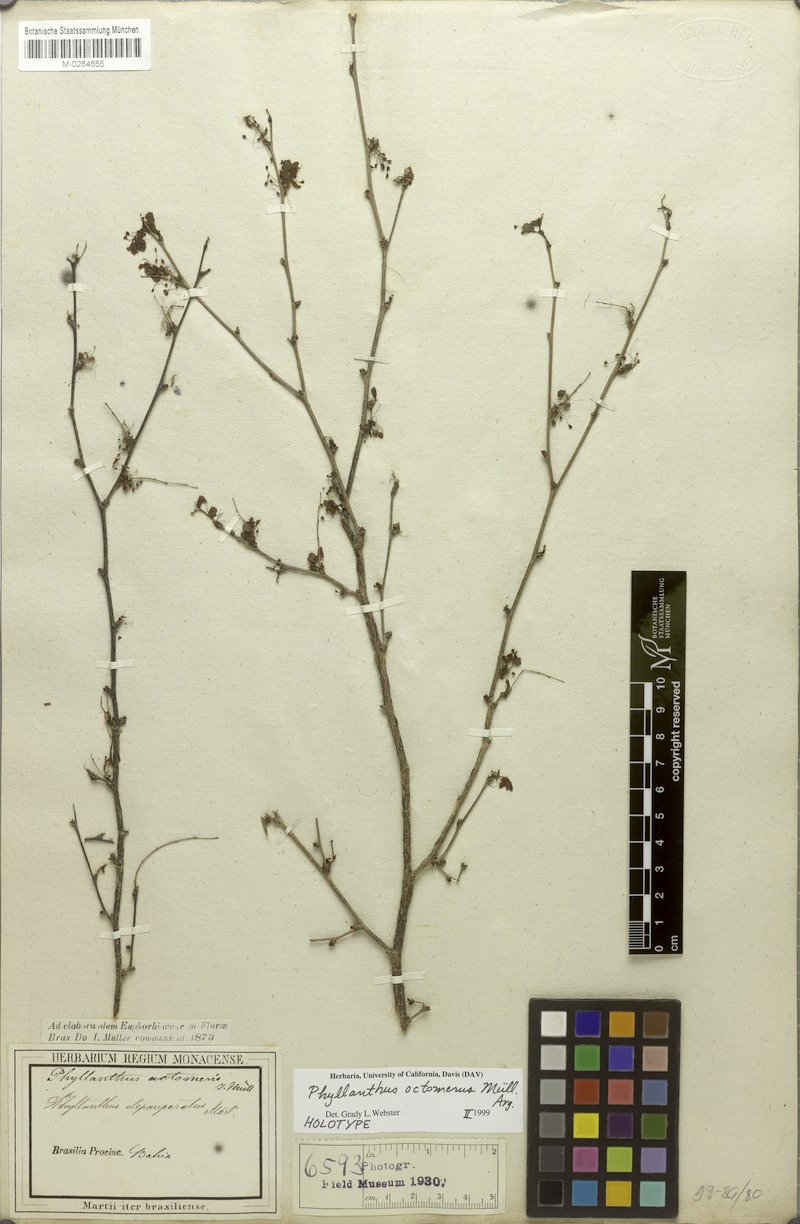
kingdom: Plantae
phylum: Tracheophyta
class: Magnoliopsida
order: Malpighiales
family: Phyllanthaceae
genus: Phyllanthus
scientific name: Phyllanthus octomerus
